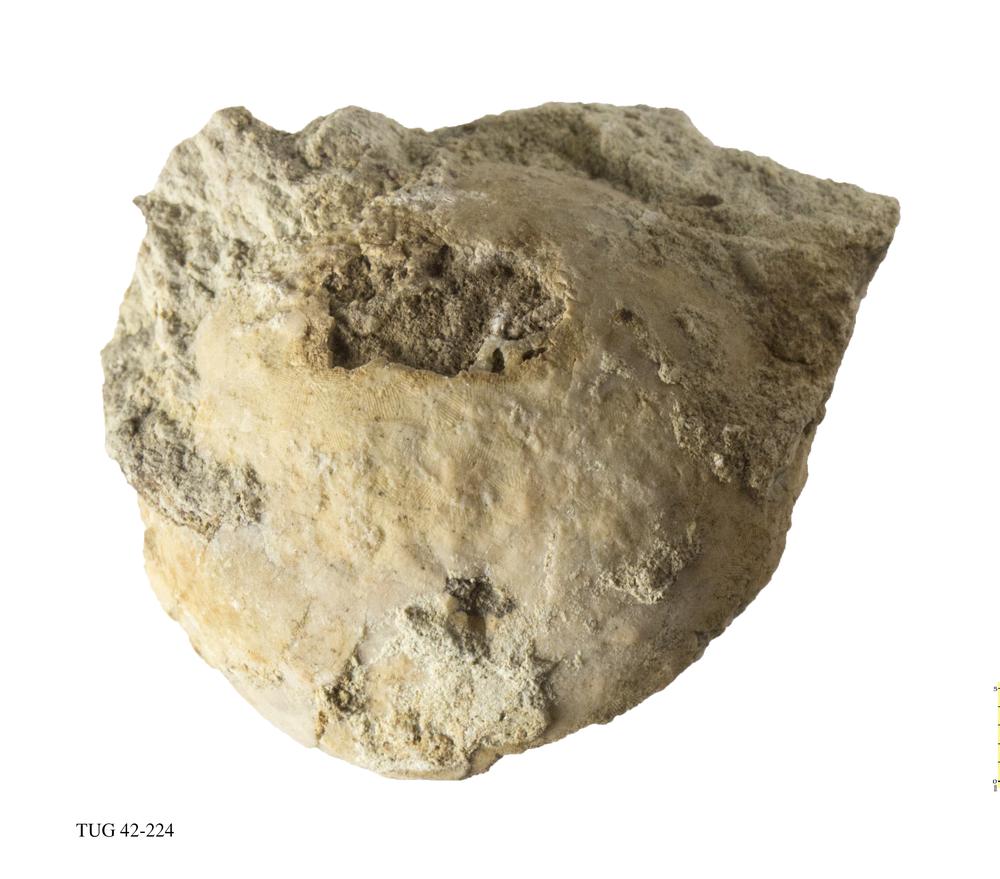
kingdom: Animalia
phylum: Echinodermata
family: Sphaeronitidae
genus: Sphaeronites
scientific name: Sphaeronites
